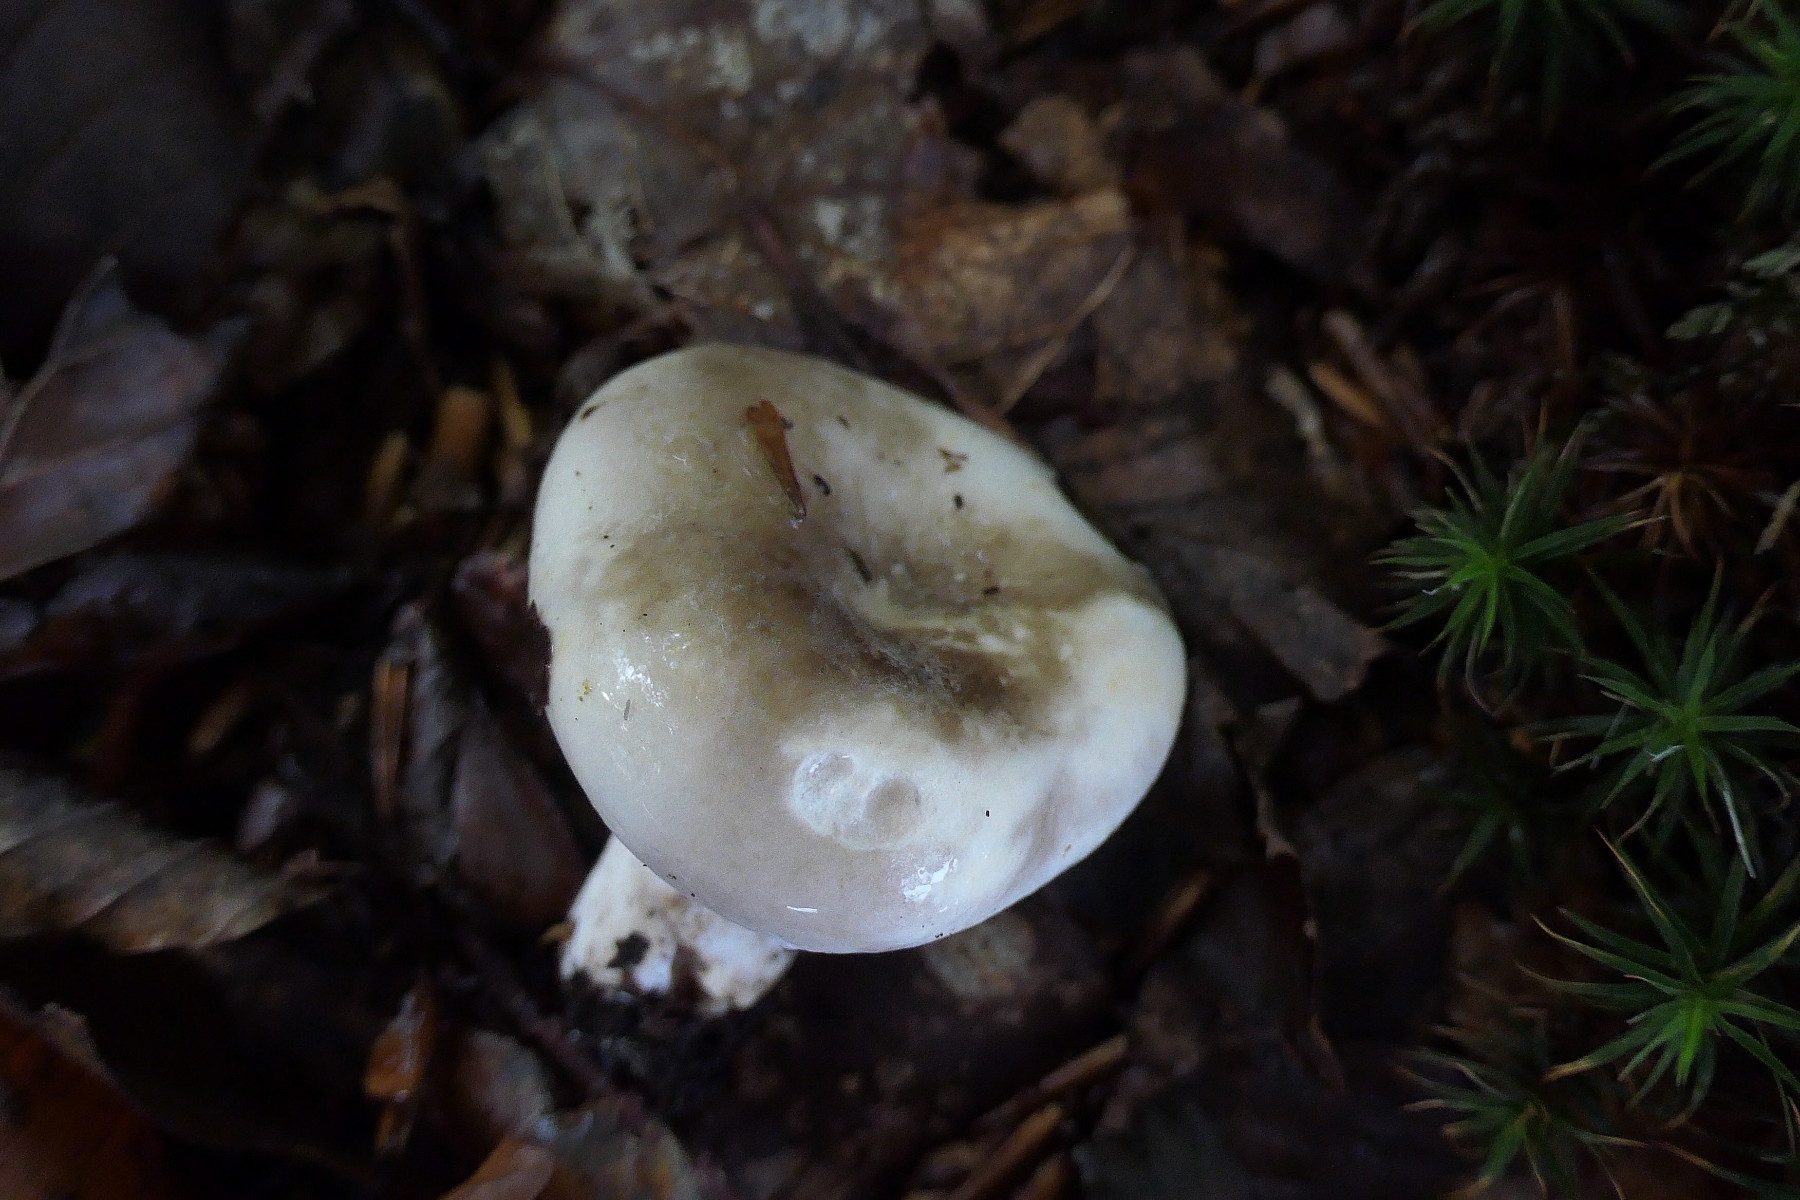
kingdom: Fungi
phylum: Basidiomycota
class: Agaricomycetes
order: Russulales
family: Russulaceae
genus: Russula
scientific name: Russula densifolia
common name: tætbladet skørhat
